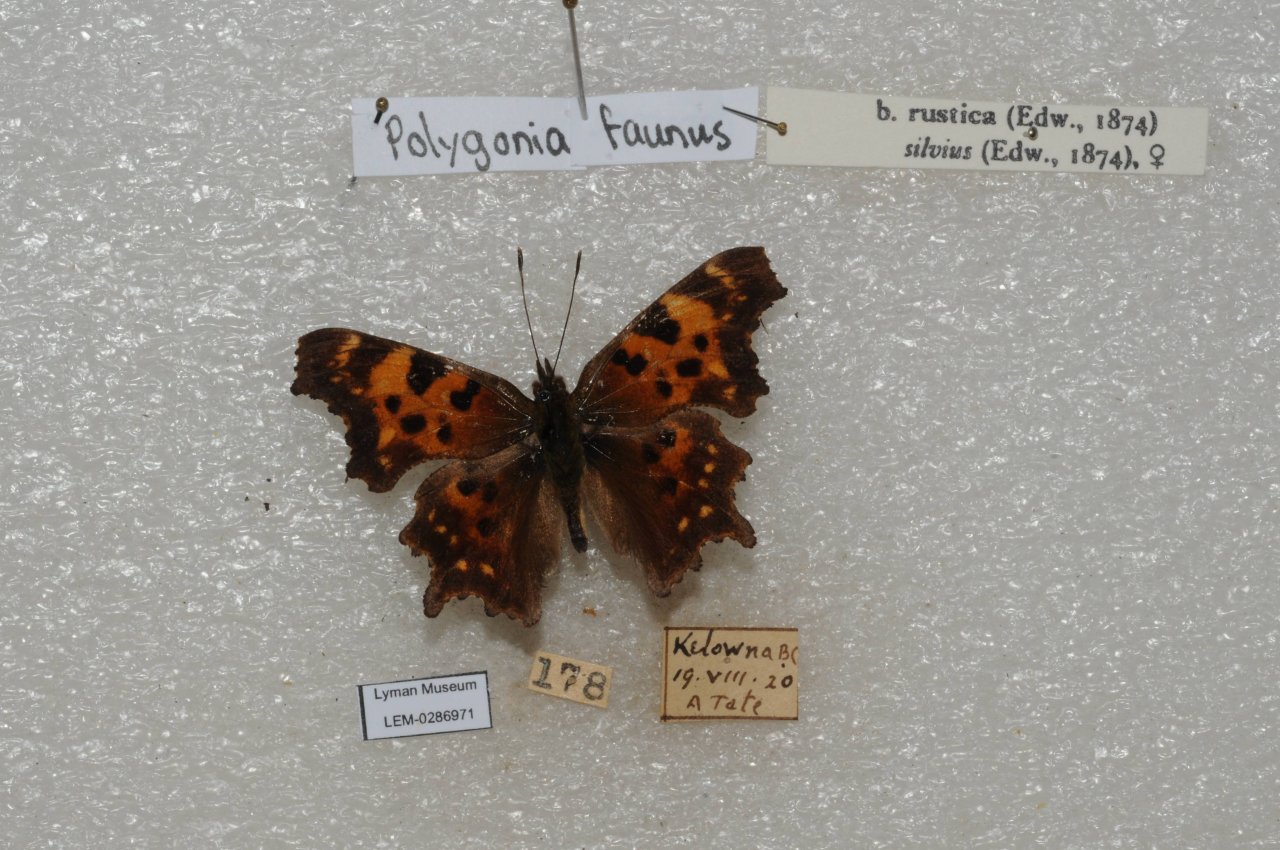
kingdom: Animalia
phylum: Arthropoda
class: Insecta
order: Lepidoptera
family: Nymphalidae
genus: Polygonia
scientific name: Polygonia faunus
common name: Green Comma
